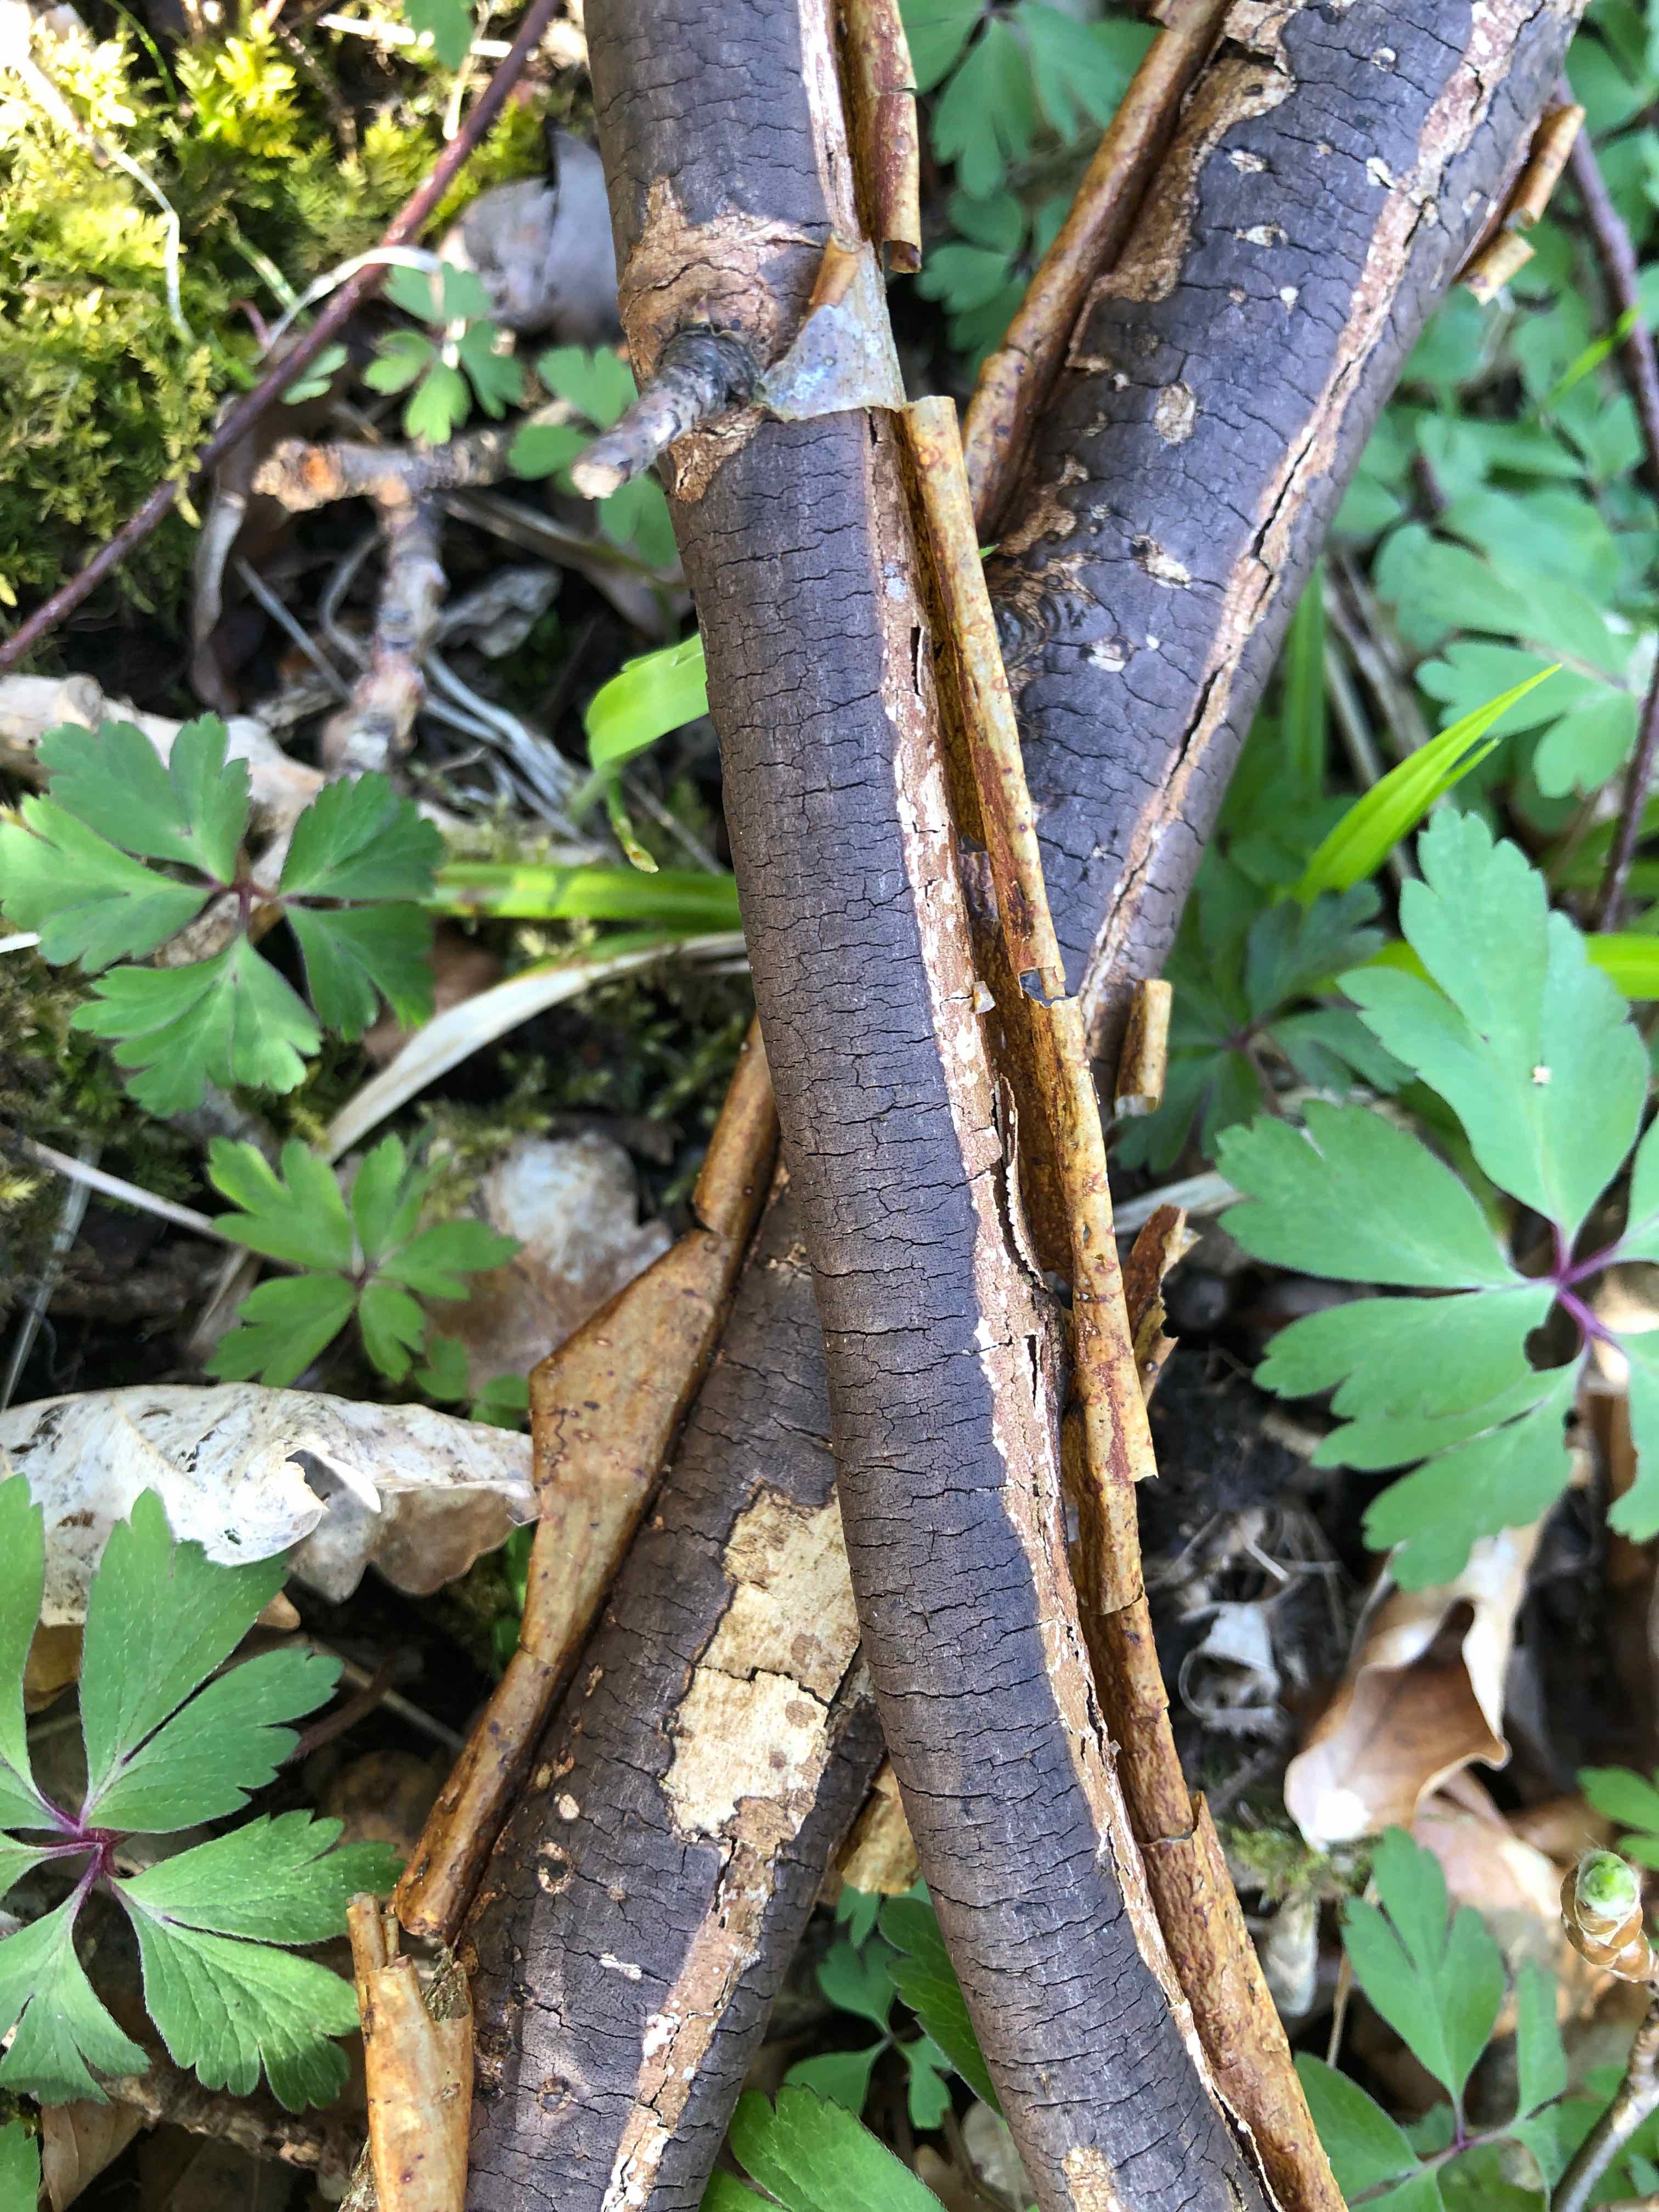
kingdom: Fungi
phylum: Ascomycota
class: Sordariomycetes
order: Xylariales
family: Diatrypaceae
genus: Diatrype
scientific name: Diatrype decorticata
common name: barksprænger-kulskorpe
